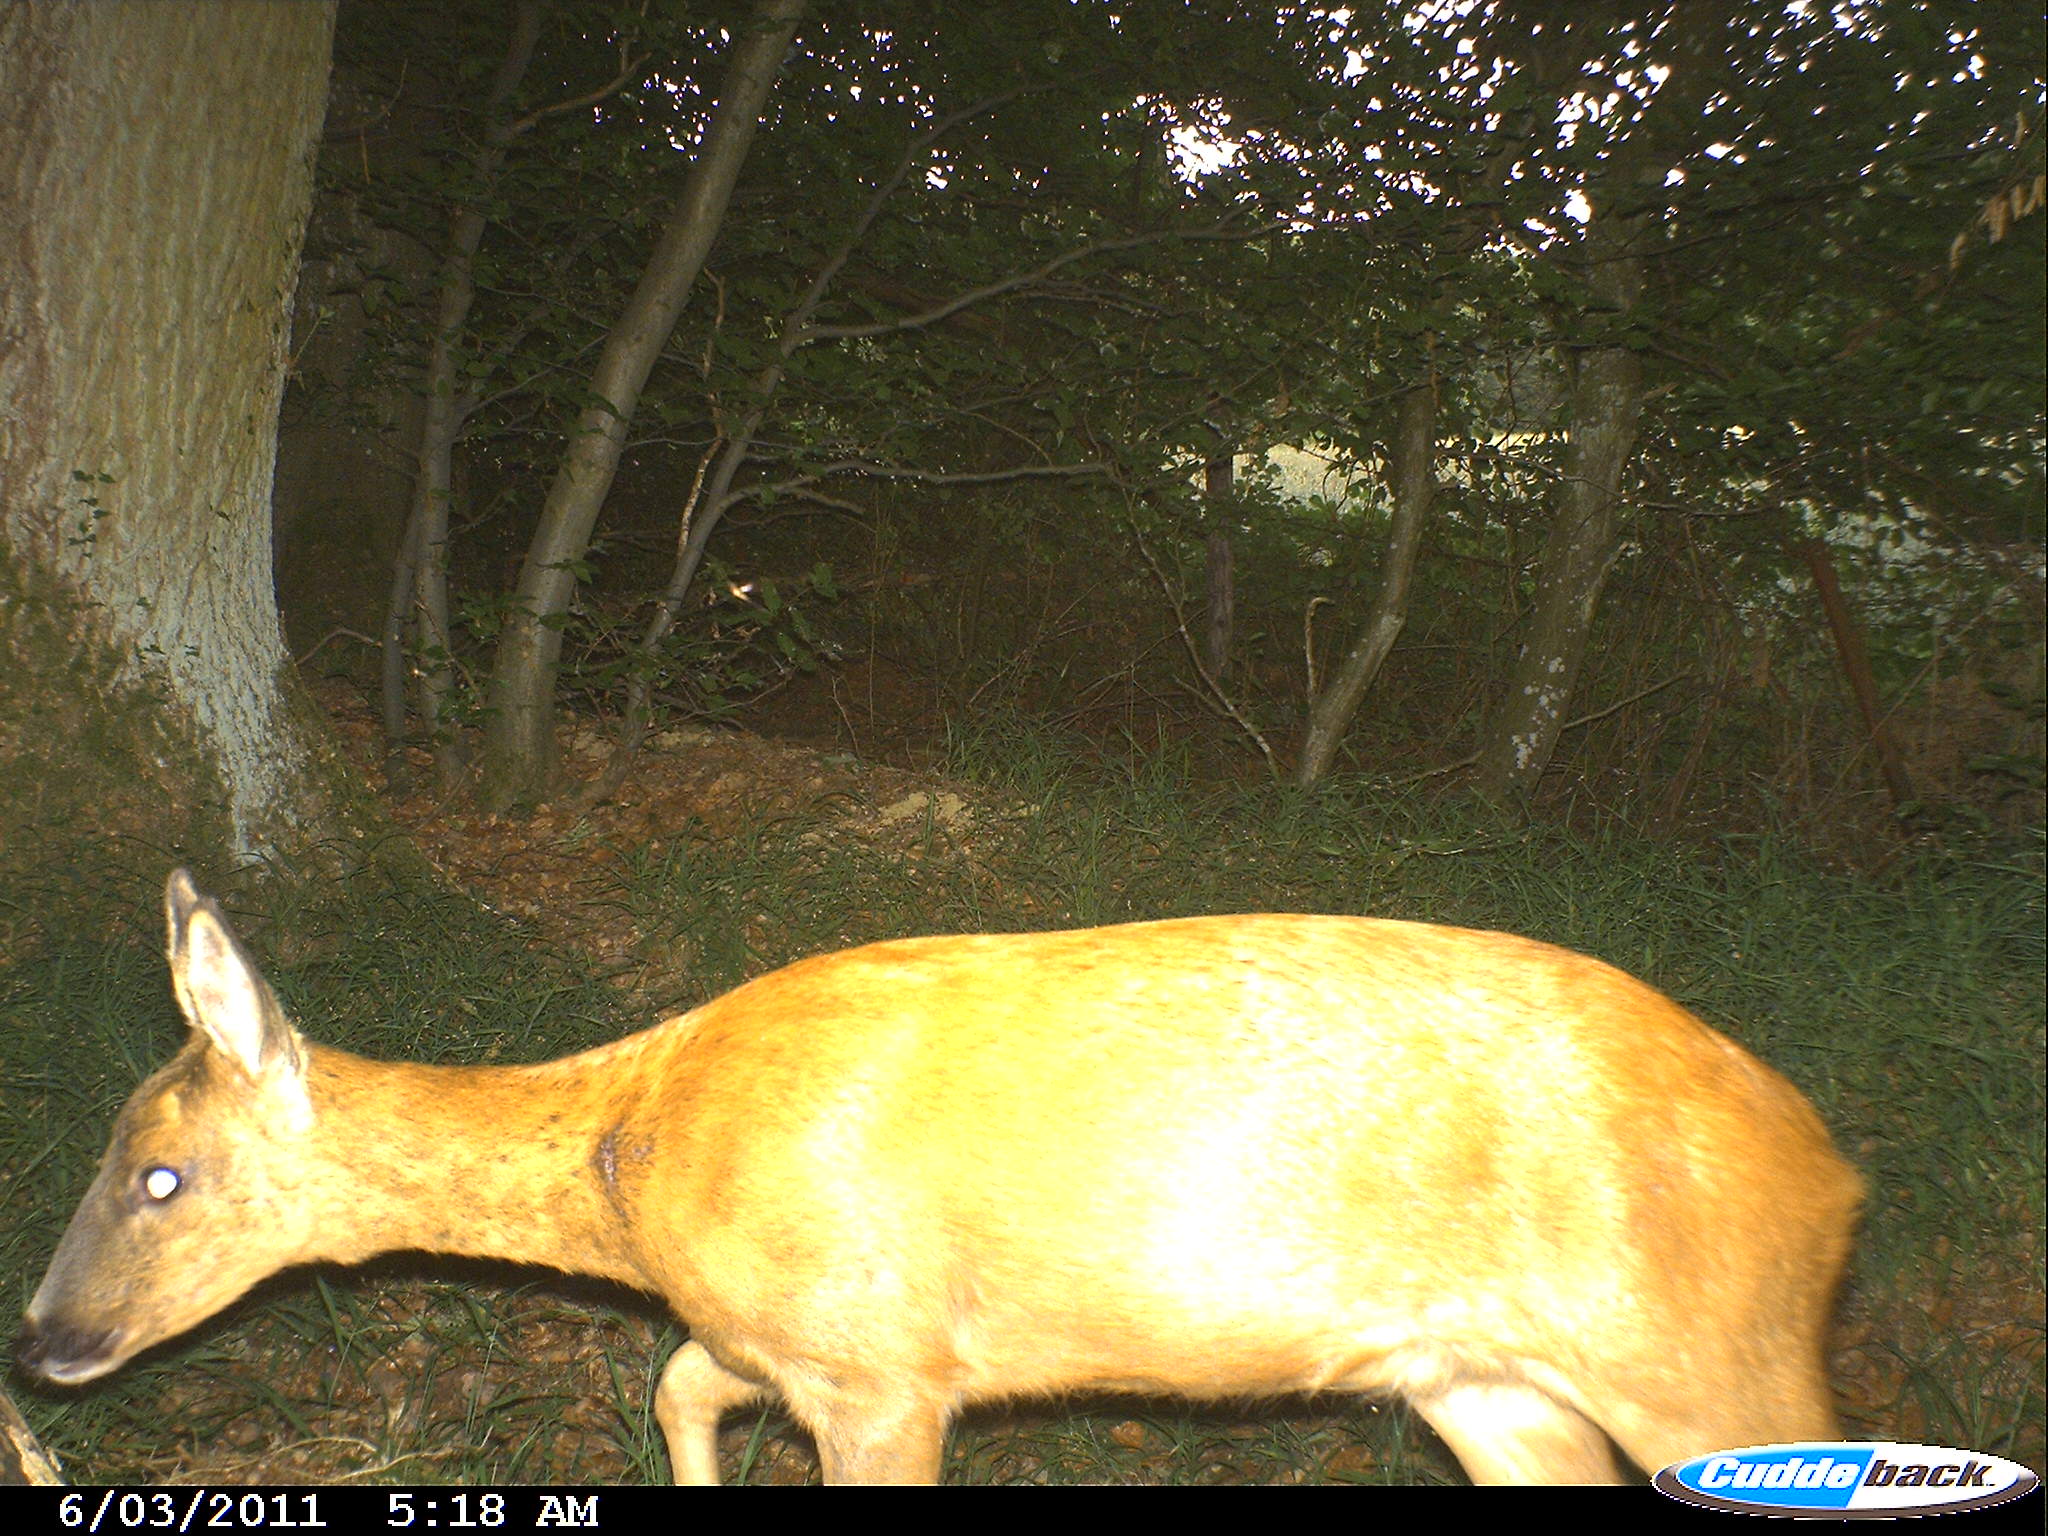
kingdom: Animalia
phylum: Chordata
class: Mammalia
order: Artiodactyla
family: Cervidae
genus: Capreolus
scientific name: Capreolus capreolus
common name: Western roe deer
